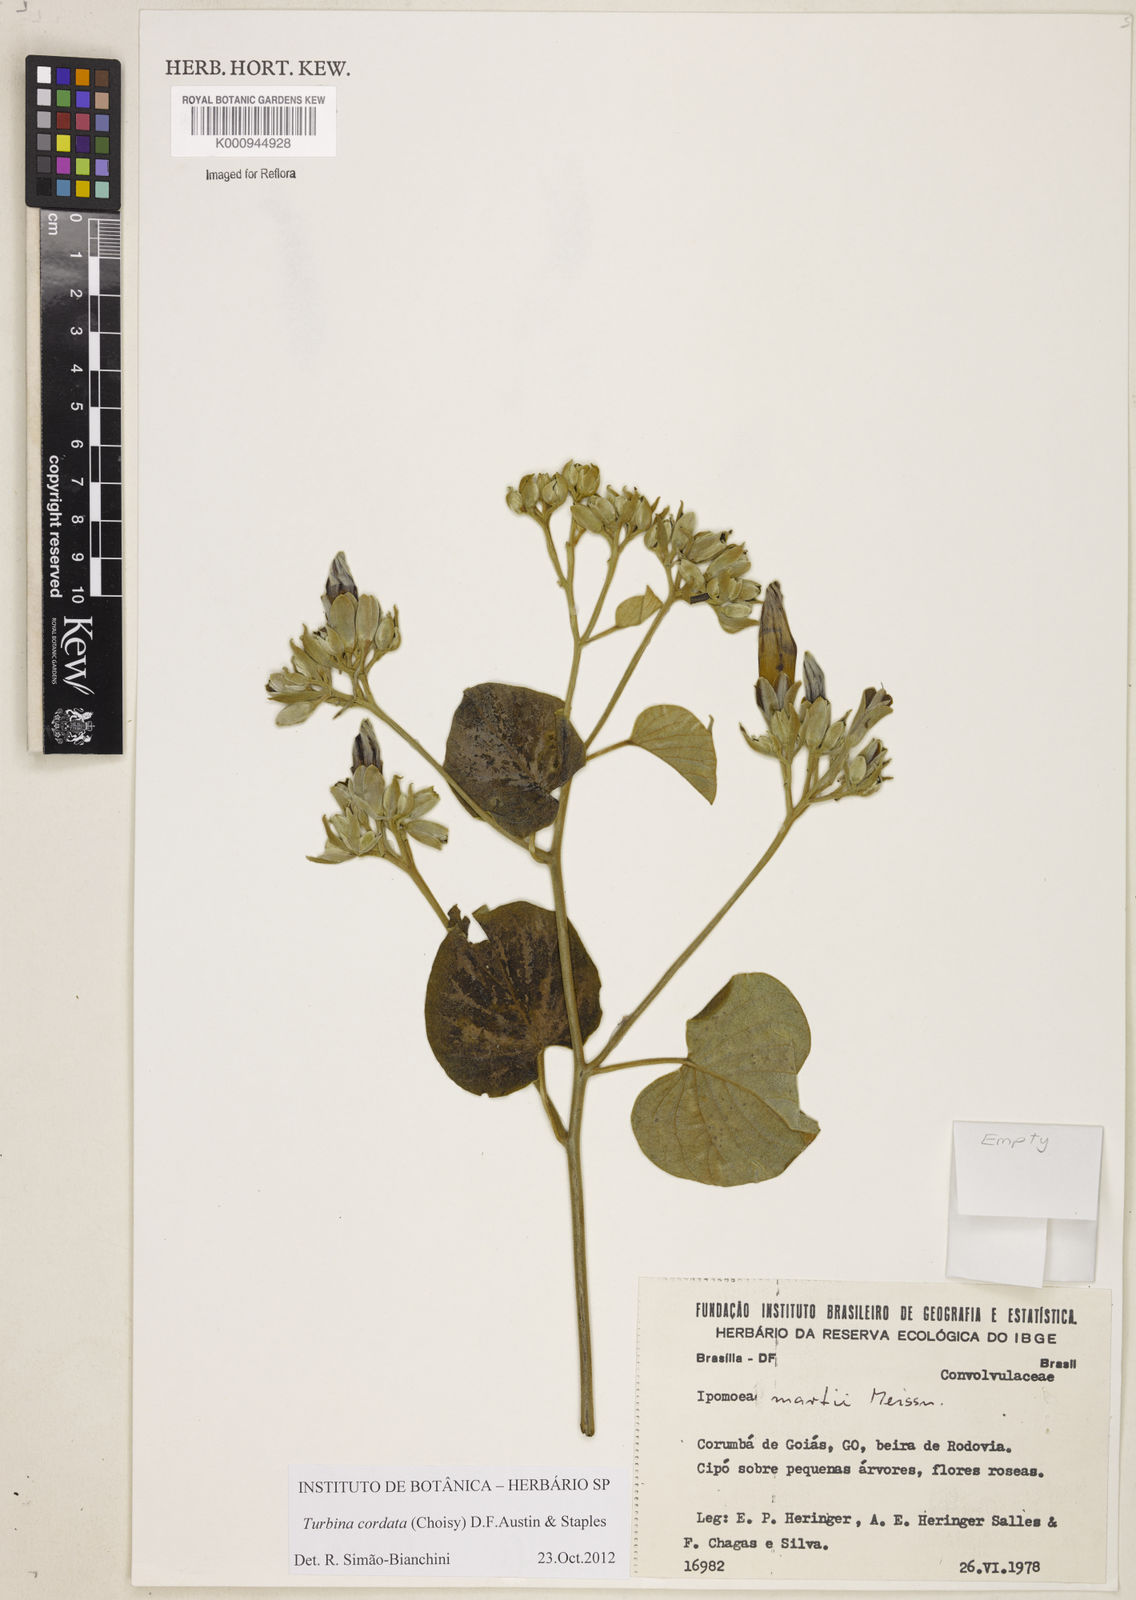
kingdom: Animalia
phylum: Mollusca
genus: Turbina
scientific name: Turbina
